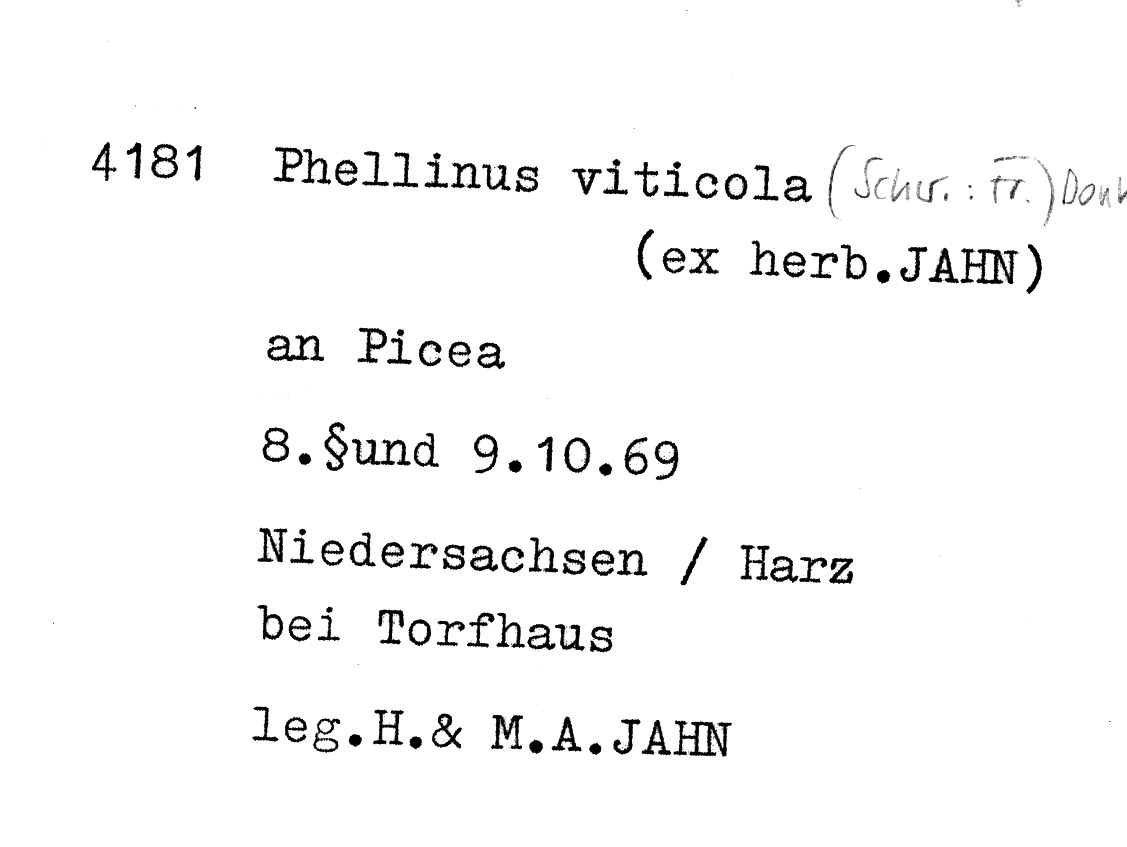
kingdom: Plantae
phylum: Tracheophyta
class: Pinopsida
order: Pinales
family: Pinaceae
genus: Picea
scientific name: Picea
